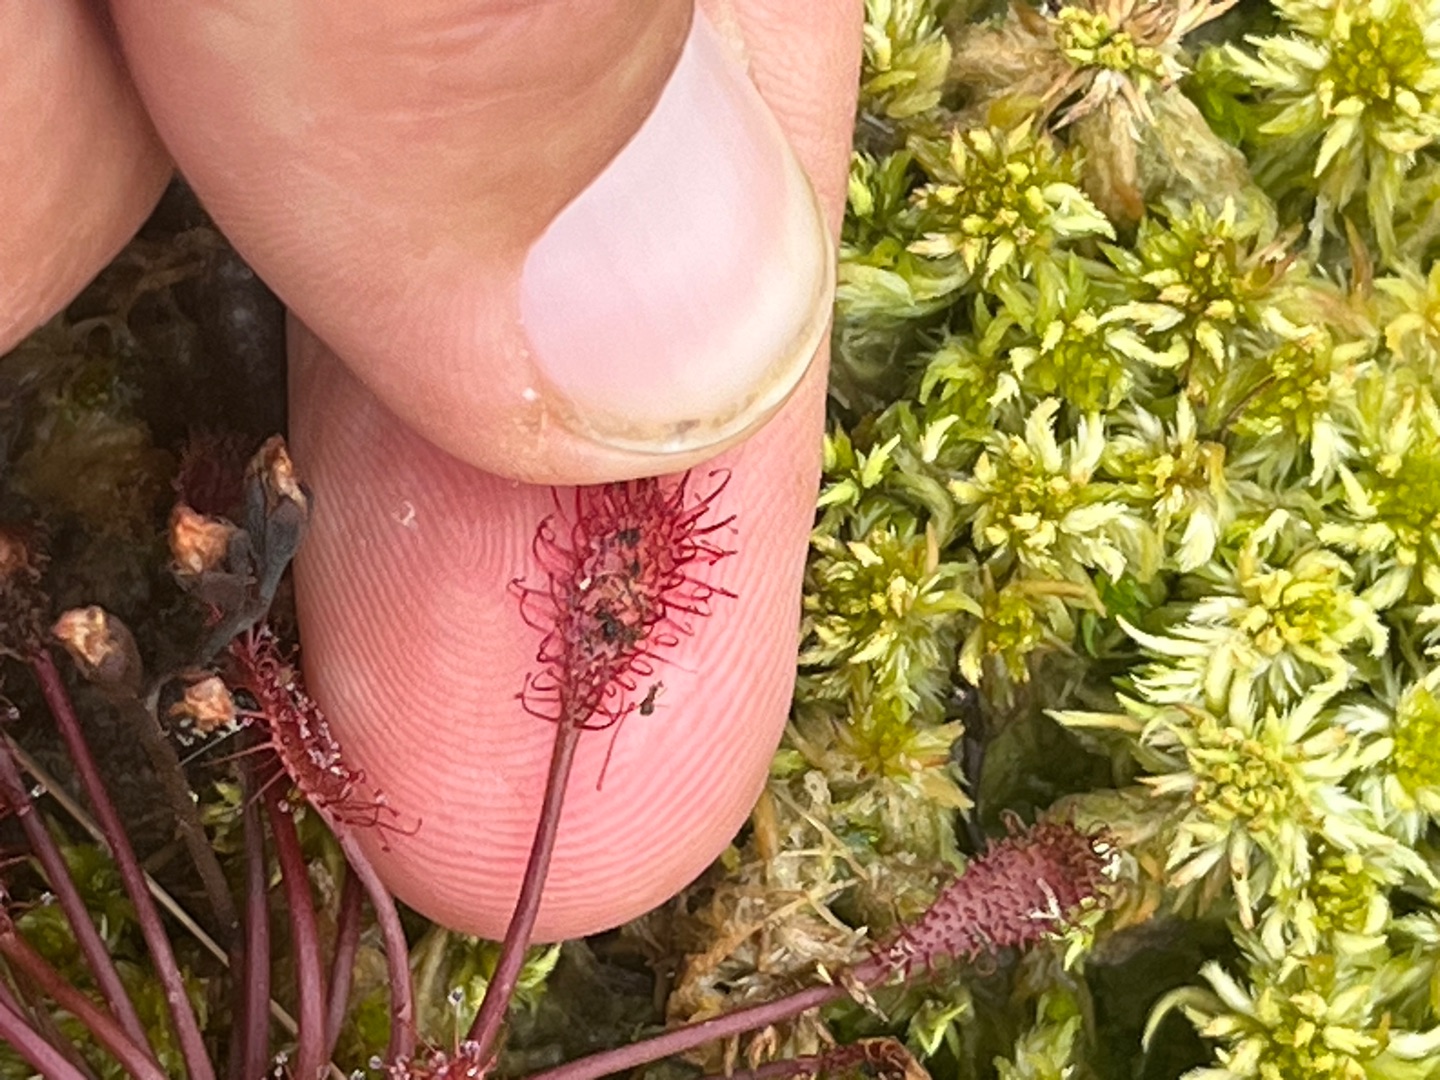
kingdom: Plantae
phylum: Tracheophyta
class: Magnoliopsida
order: Caryophyllales
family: Droseraceae
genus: Drosera
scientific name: Drosera intermedia
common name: Liden soldug
